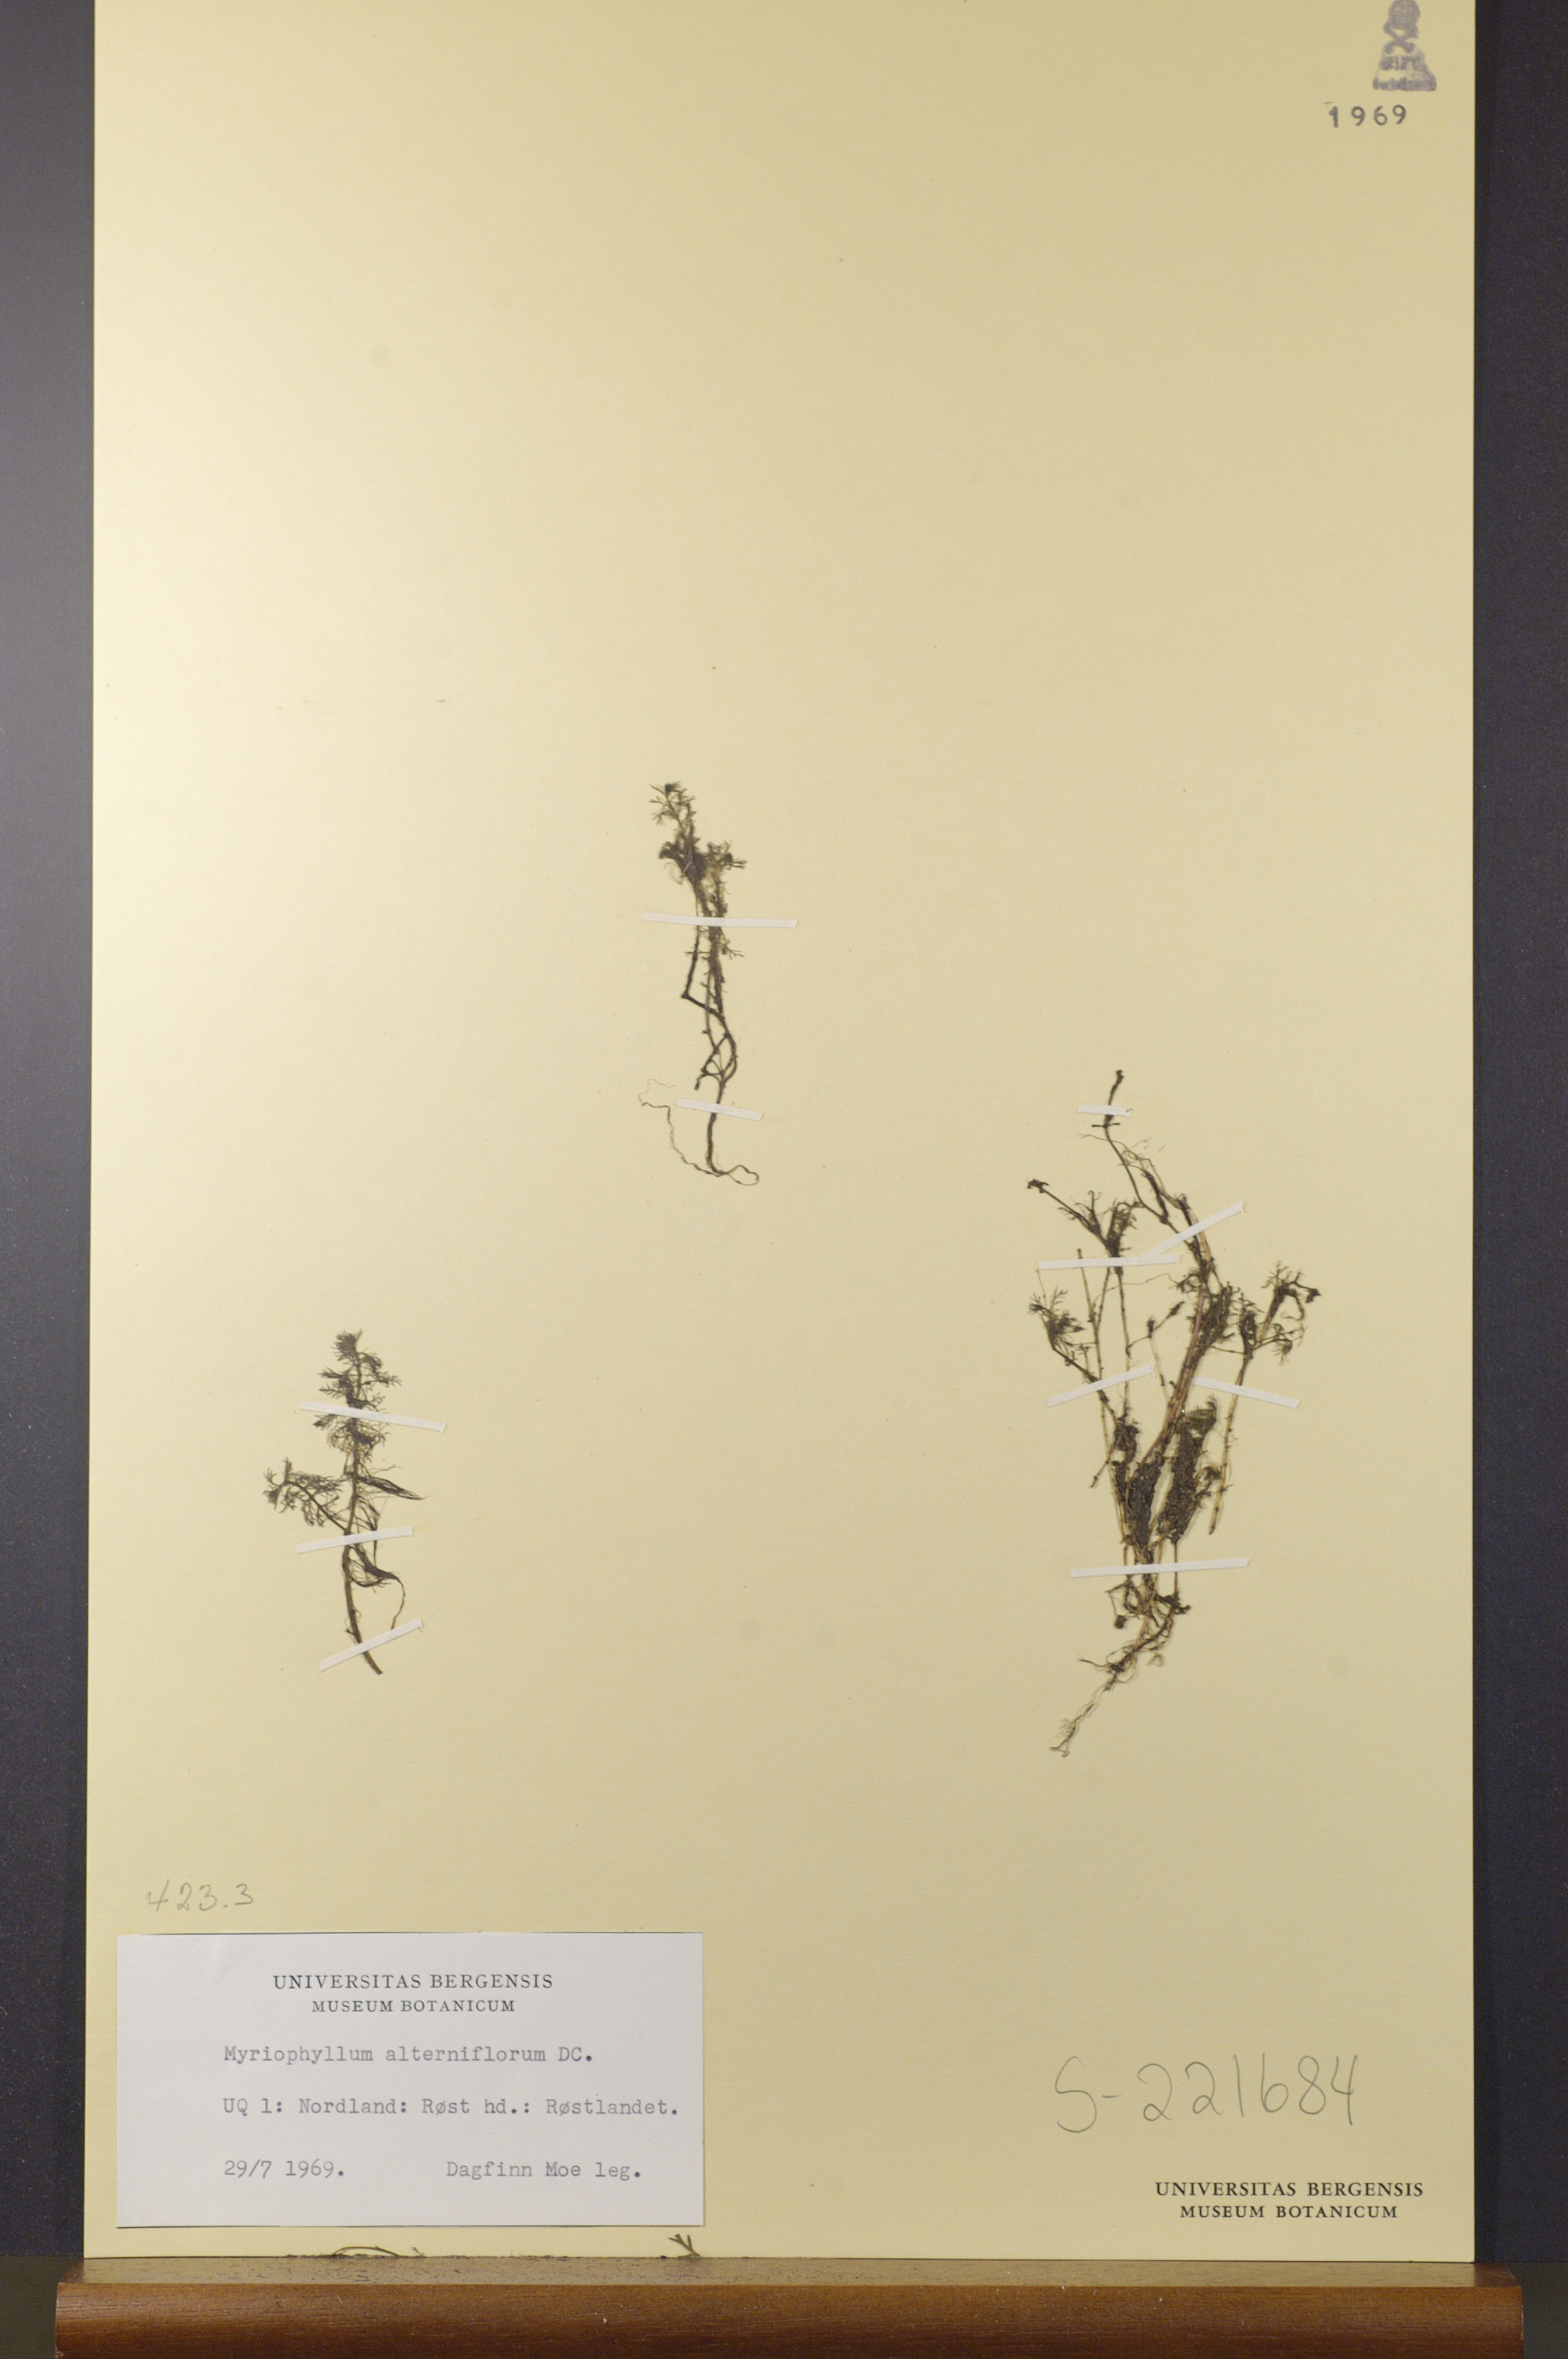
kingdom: Plantae
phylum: Tracheophyta
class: Magnoliopsida
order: Saxifragales
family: Haloragaceae
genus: Myriophyllum
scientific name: Myriophyllum alterniflorum
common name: Alternate water-milfoil
